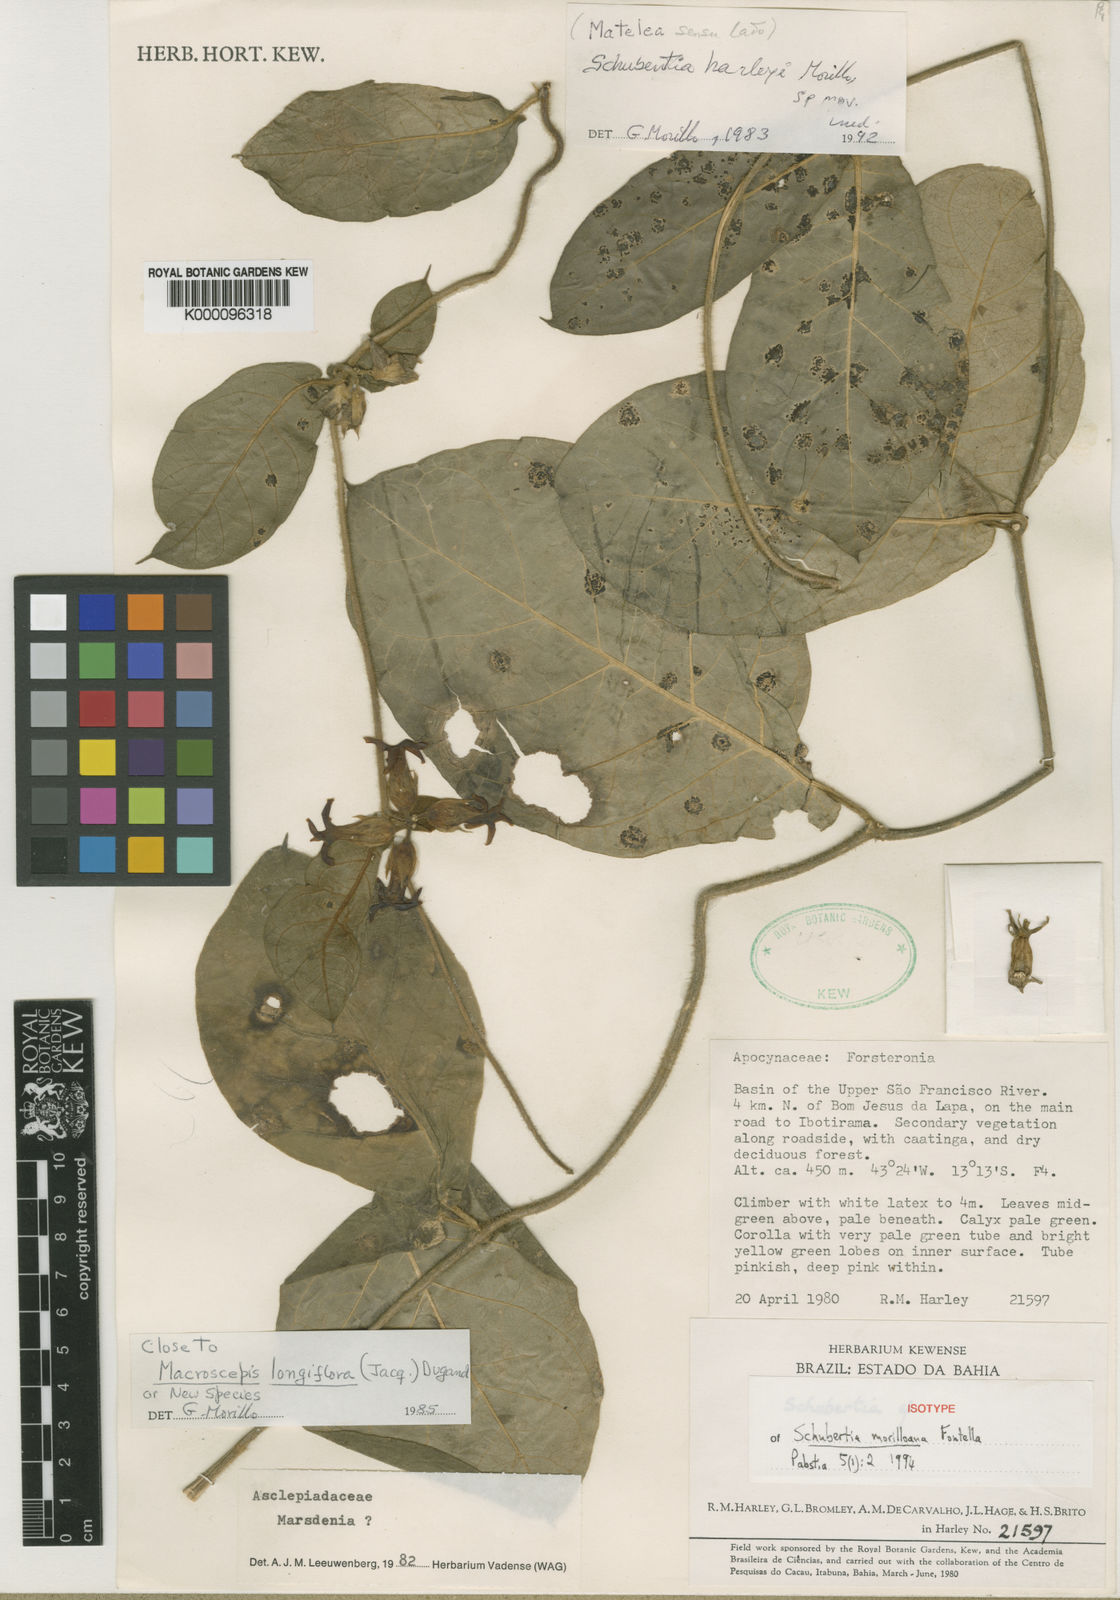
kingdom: Plantae
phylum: Tracheophyta
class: Magnoliopsida
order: Gentianales
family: Apocynaceae
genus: Schubertia
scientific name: Schubertia morilloana
